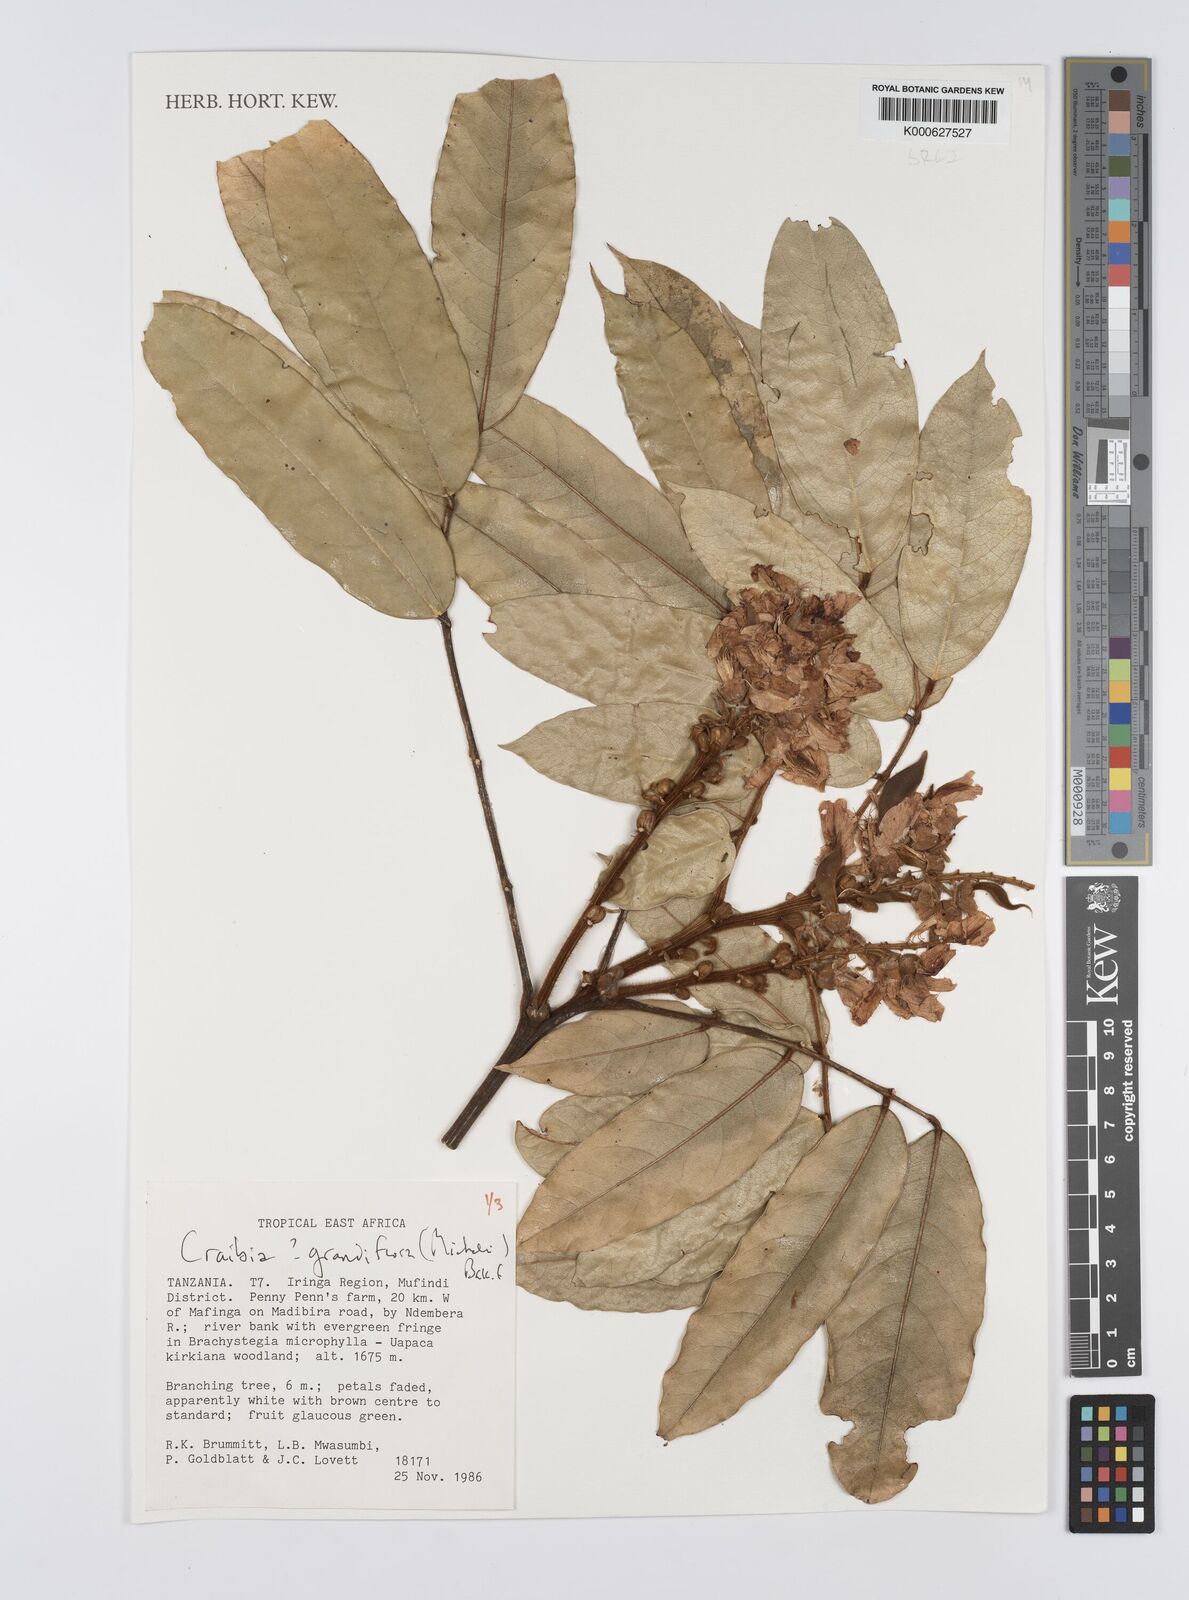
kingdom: Plantae
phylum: Tracheophyta
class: Magnoliopsida
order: Fabales
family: Fabaceae
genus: Craibia
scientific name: Craibia grandiflora
